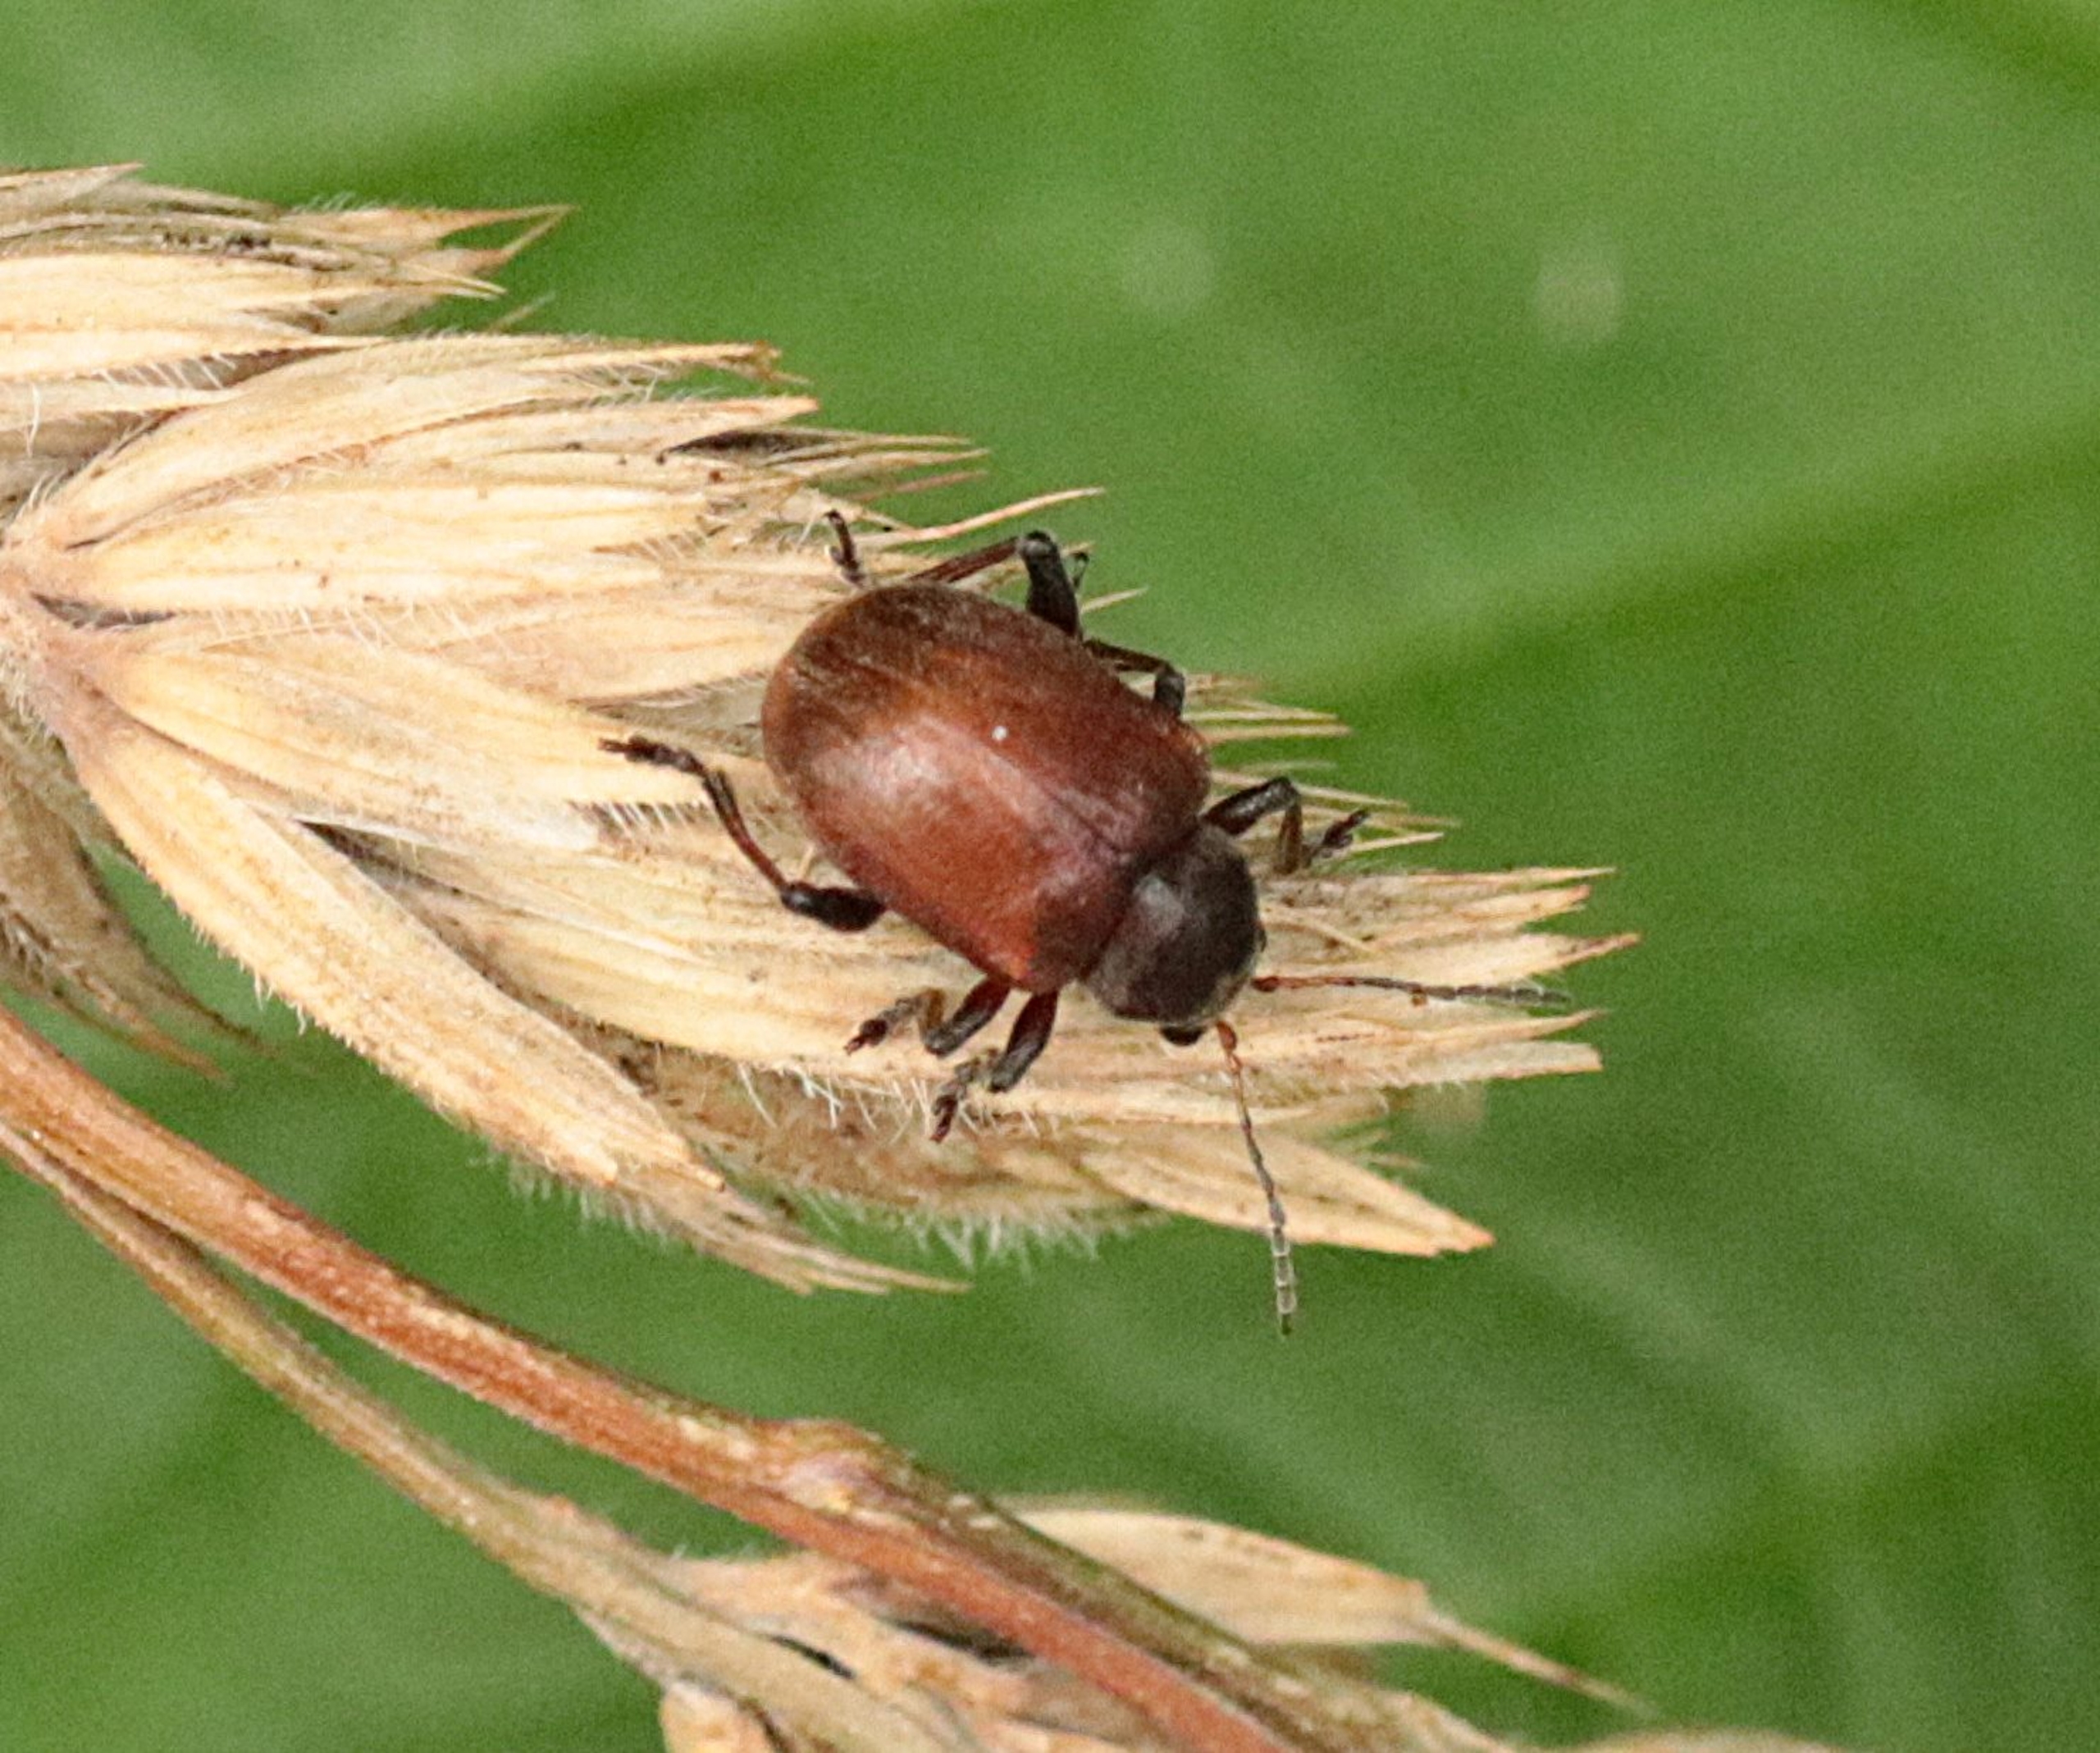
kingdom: Animalia
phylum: Arthropoda
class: Insecta
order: Coleoptera
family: Chrysomelidae
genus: Bromius
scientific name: Bromius obscurus
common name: Gederamsbille
